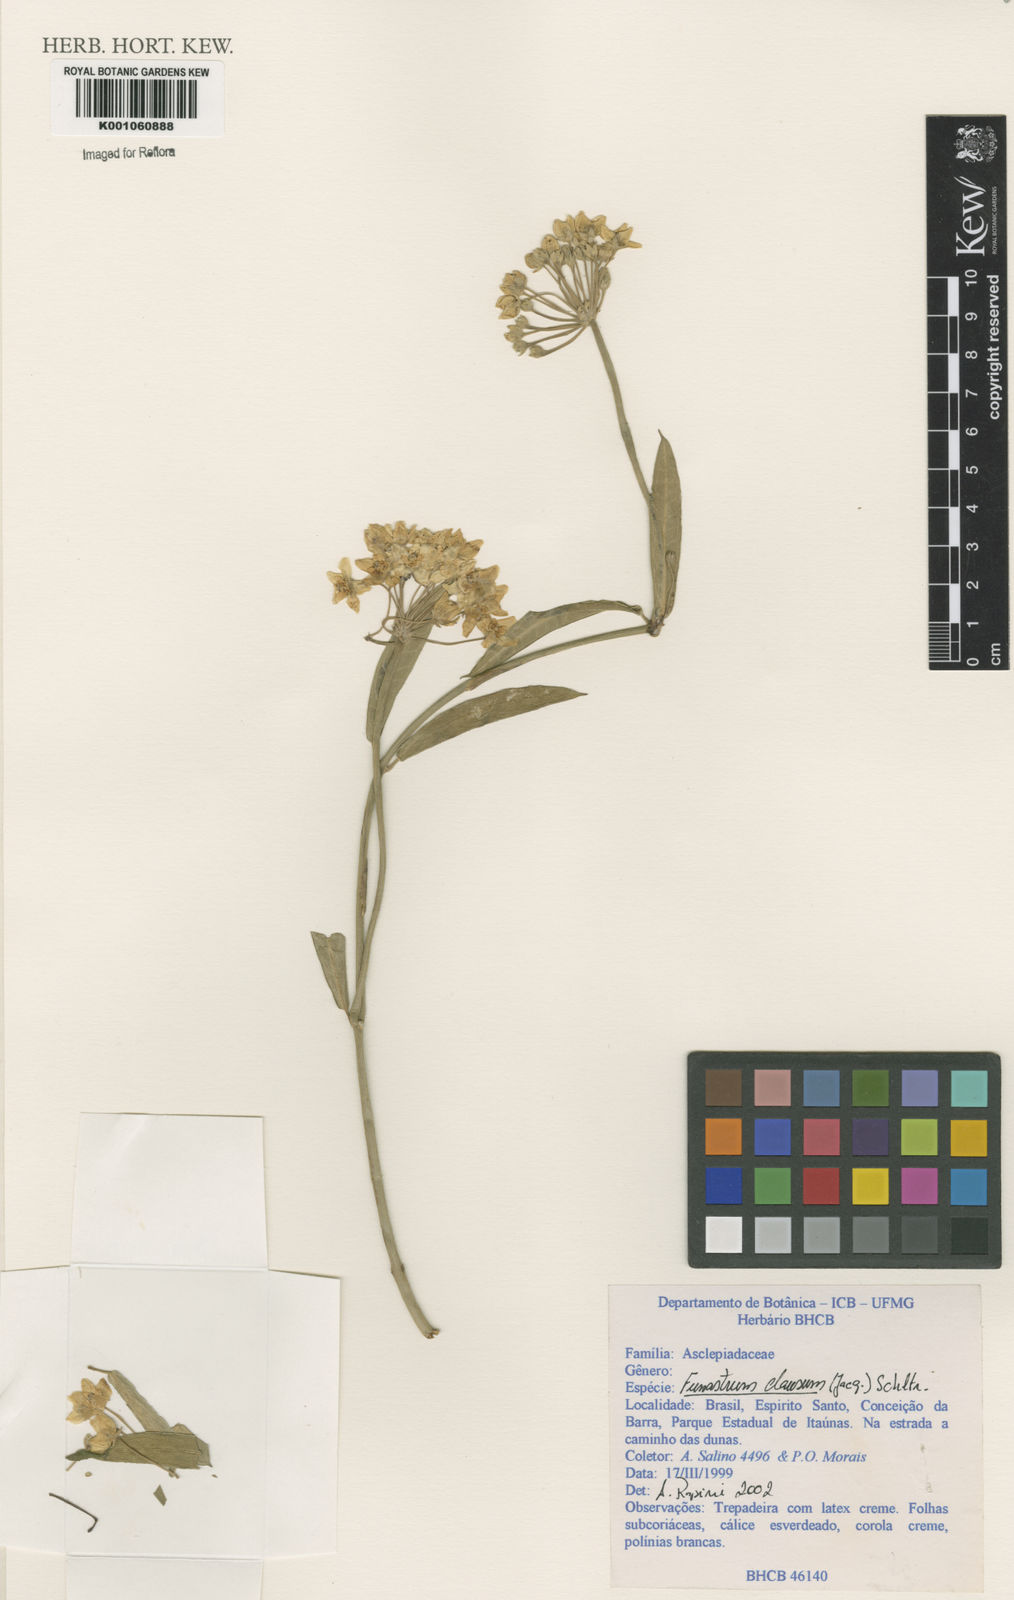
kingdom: Plantae
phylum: Tracheophyta
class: Magnoliopsida
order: Gentianales
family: Apocynaceae
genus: Funastrum
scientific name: Funastrum clausum
